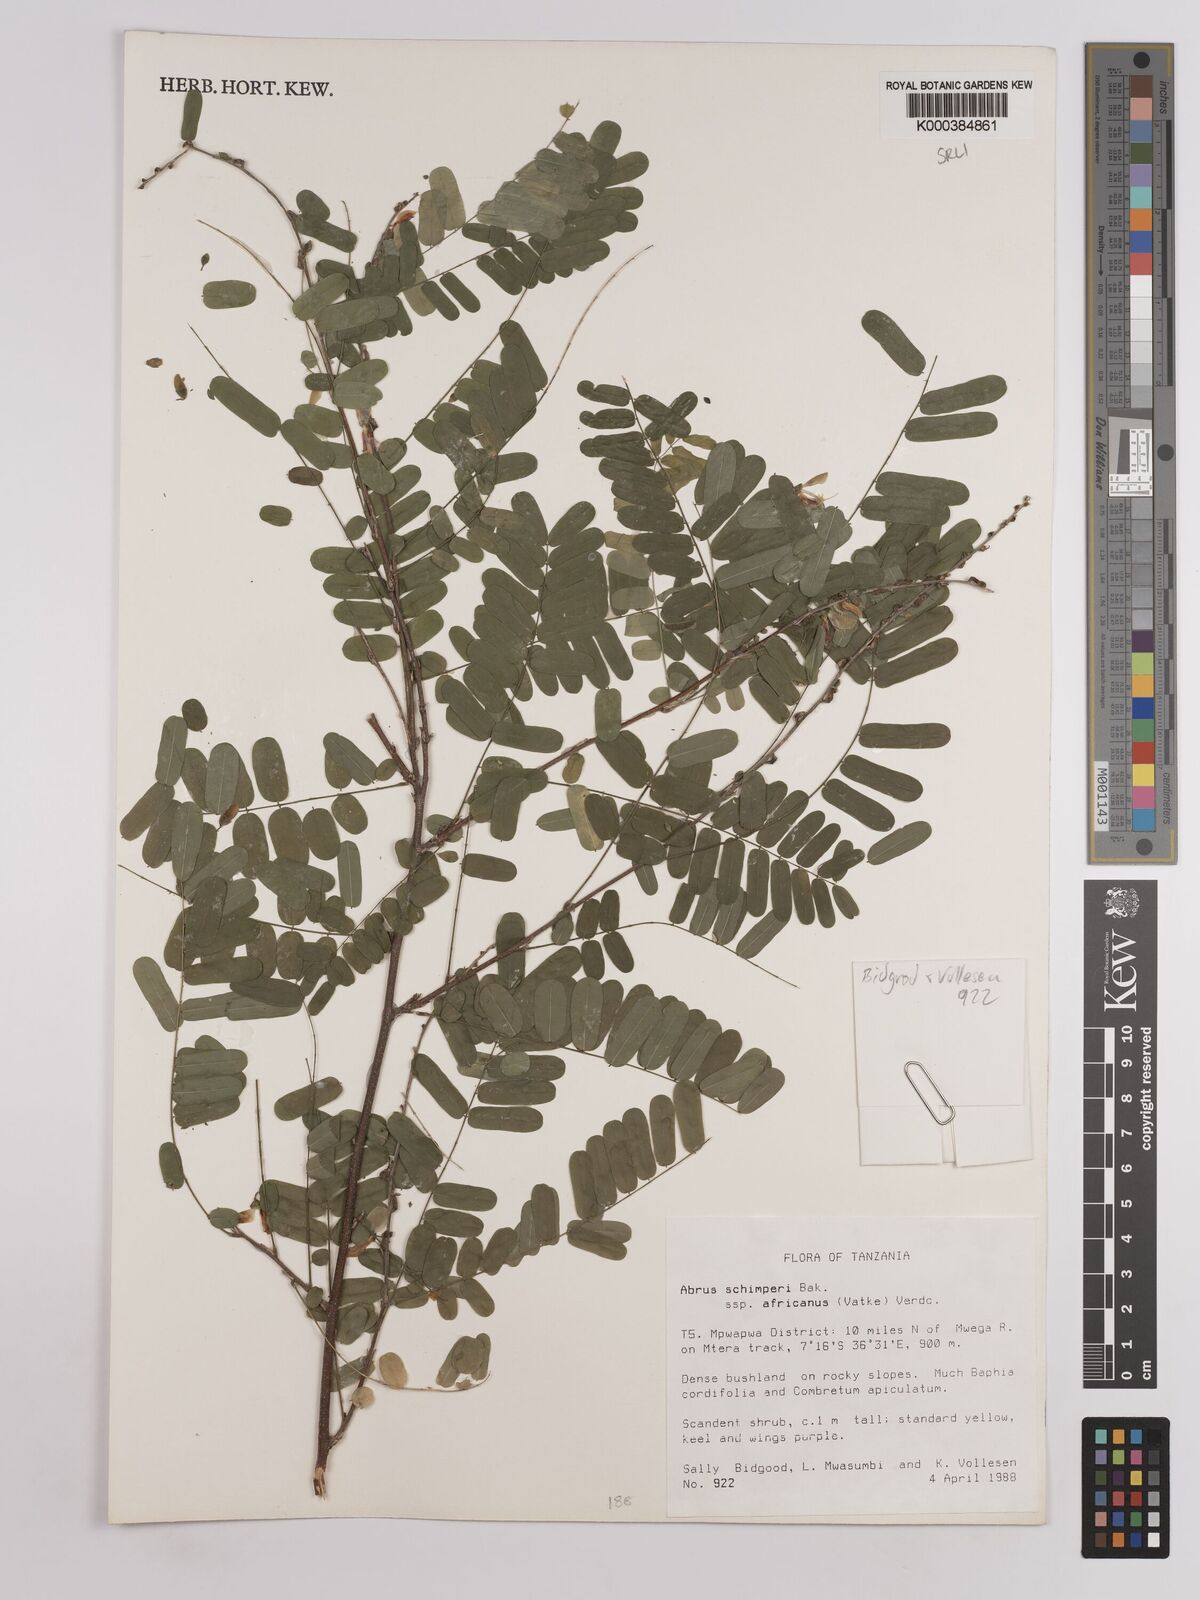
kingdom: Plantae
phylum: Tracheophyta
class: Magnoliopsida
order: Fabales
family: Fabaceae
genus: Abrus
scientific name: Abrus fruticulosus
